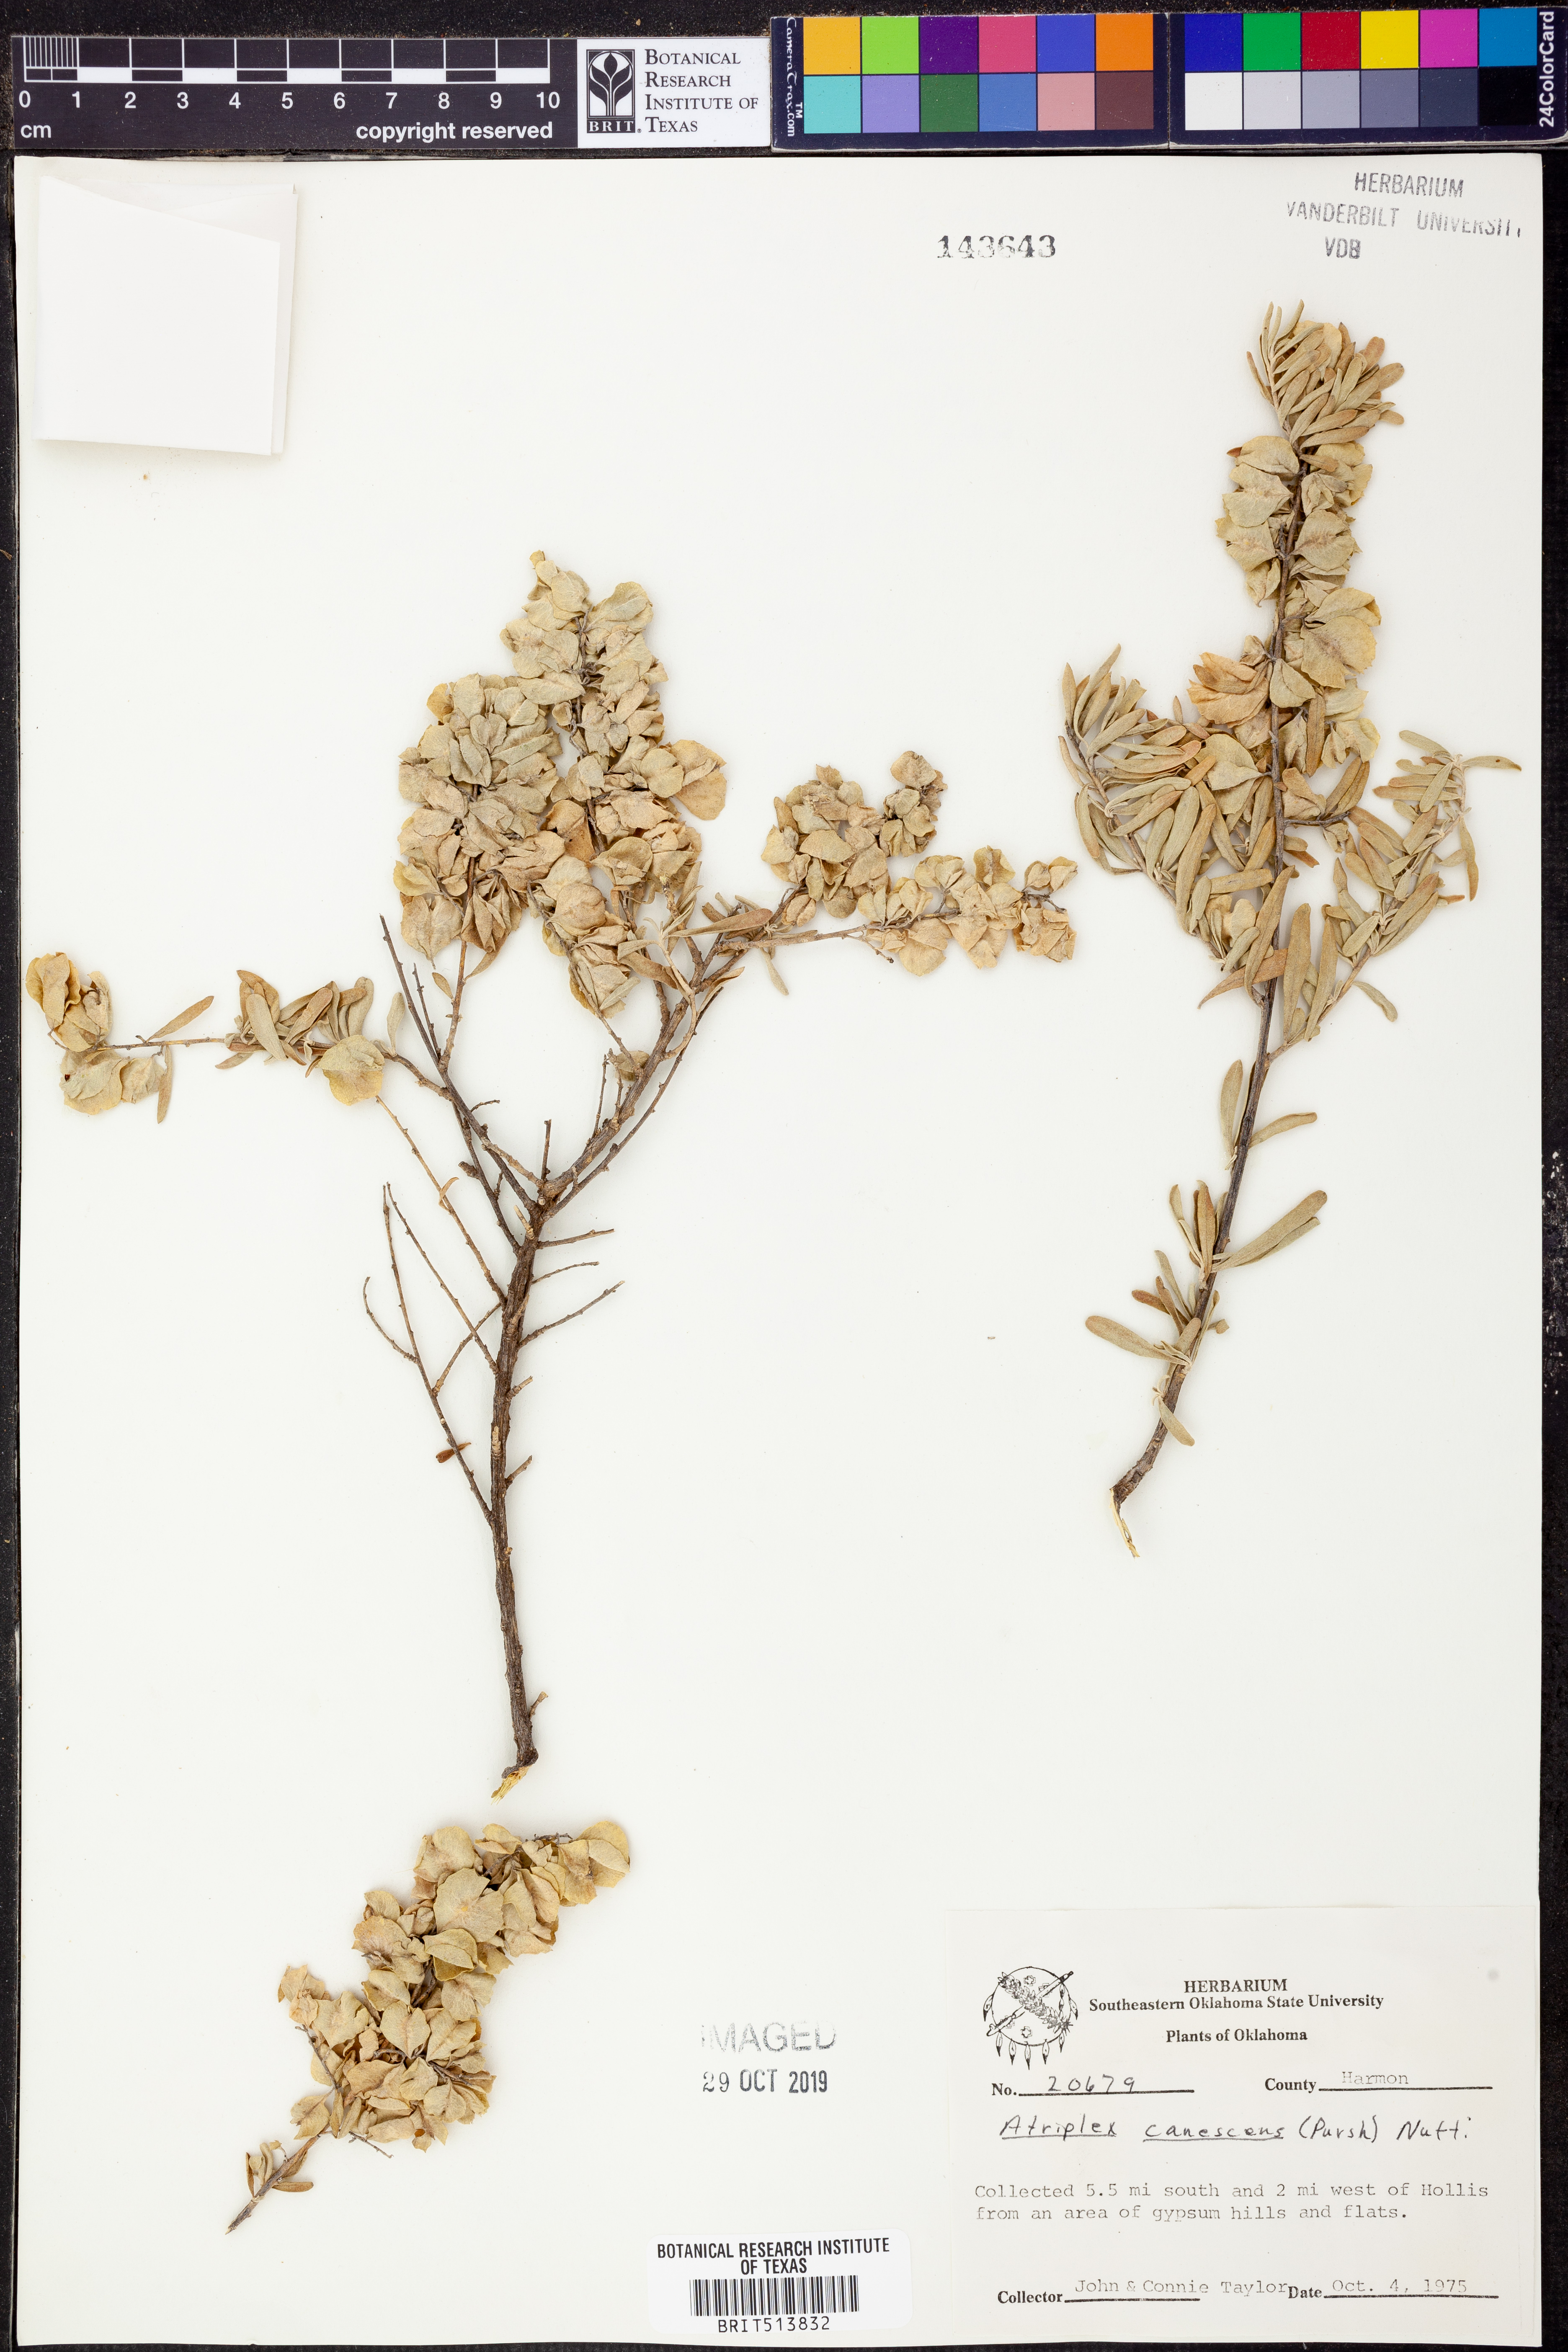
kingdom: Plantae
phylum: Tracheophyta
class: Magnoliopsida
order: Caryophyllales
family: Amaranthaceae
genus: Atriplex
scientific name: Atriplex canescens
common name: Four-wing saltbush
